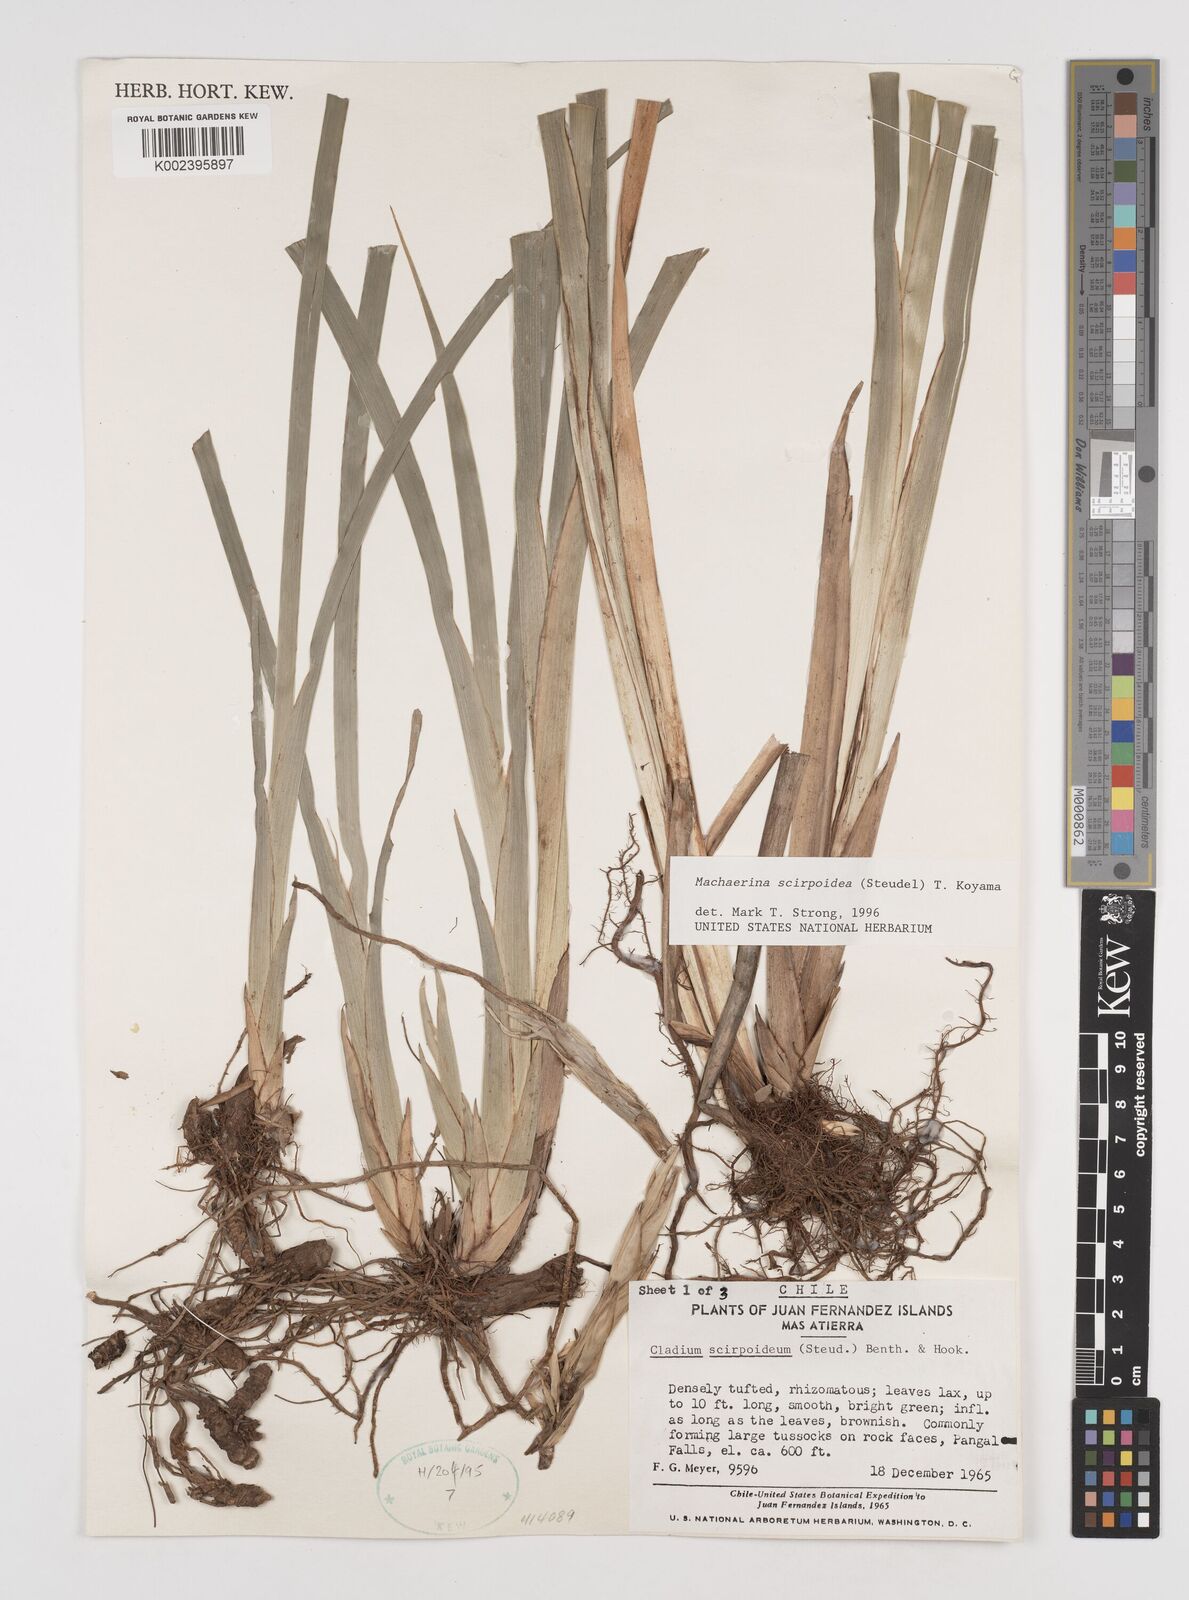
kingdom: Plantae
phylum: Tracheophyta
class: Liliopsida
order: Poales
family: Cyperaceae
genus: Machaerina
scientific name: Machaerina scirpoidea
